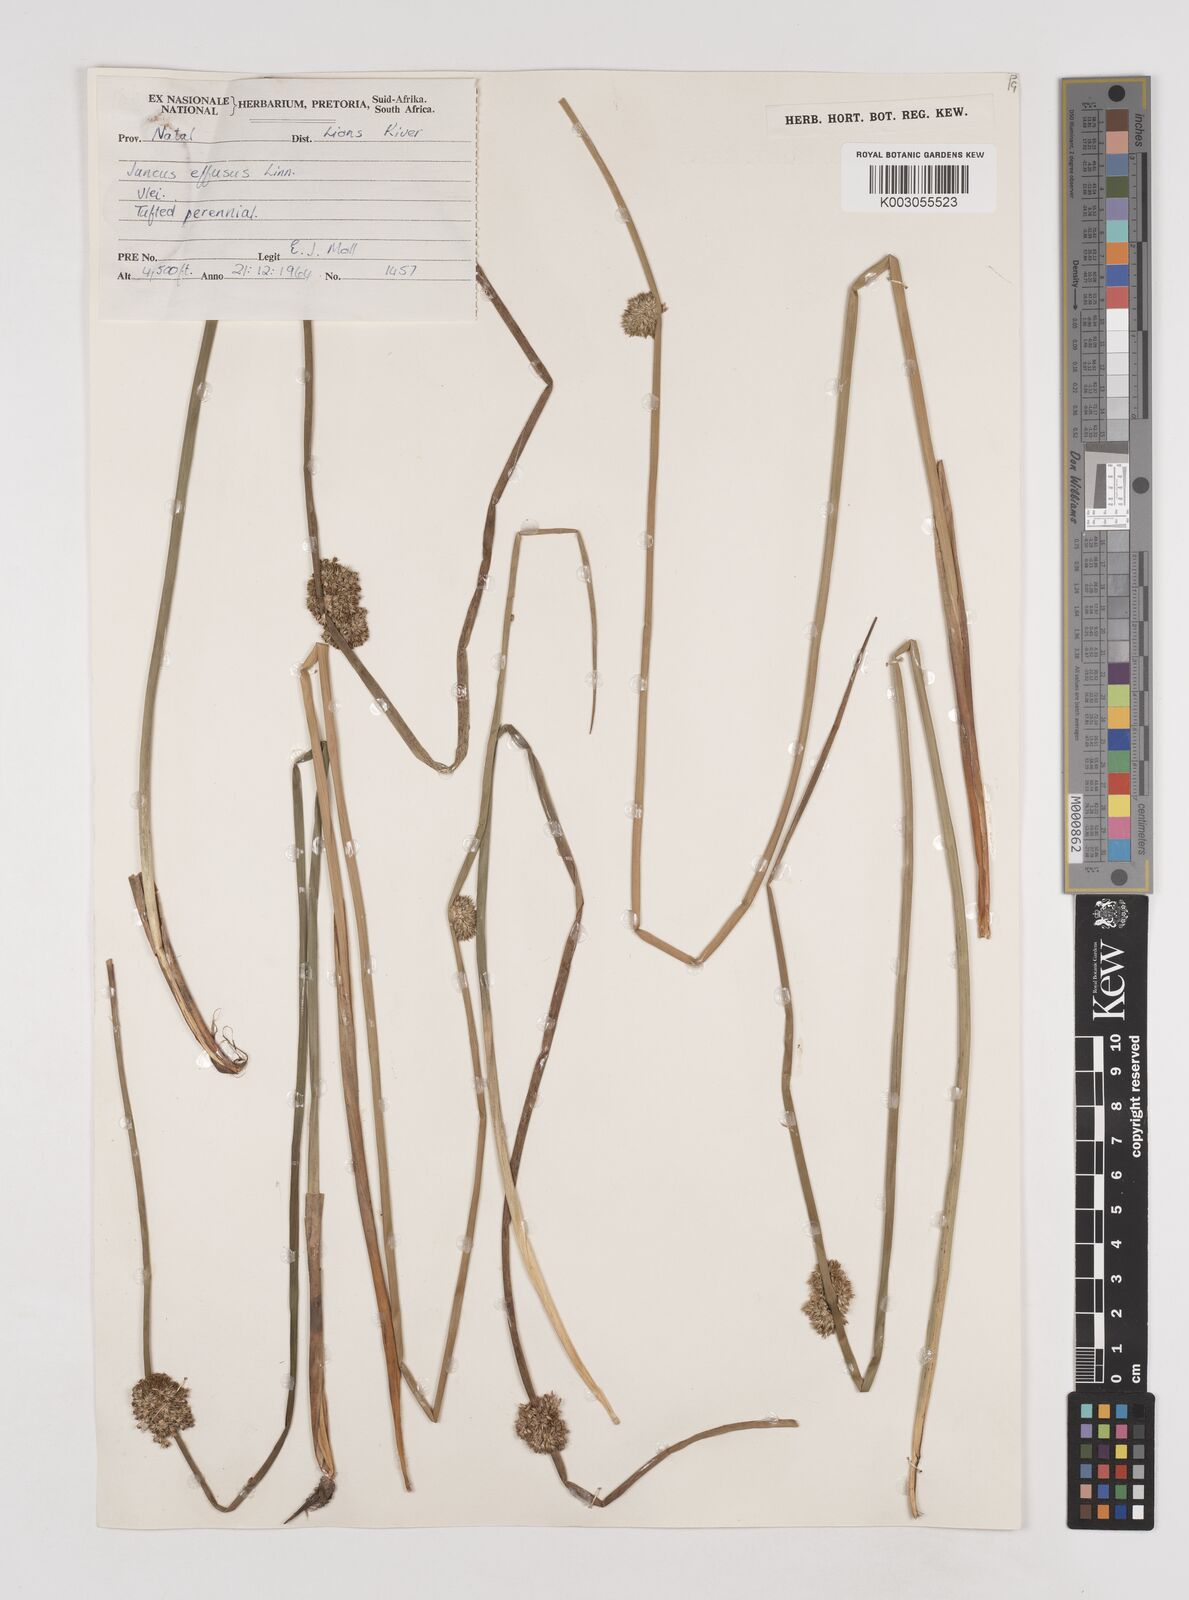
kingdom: Plantae
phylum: Tracheophyta
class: Liliopsida
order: Poales
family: Juncaceae
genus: Juncus
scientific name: Juncus effusus
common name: Soft rush
